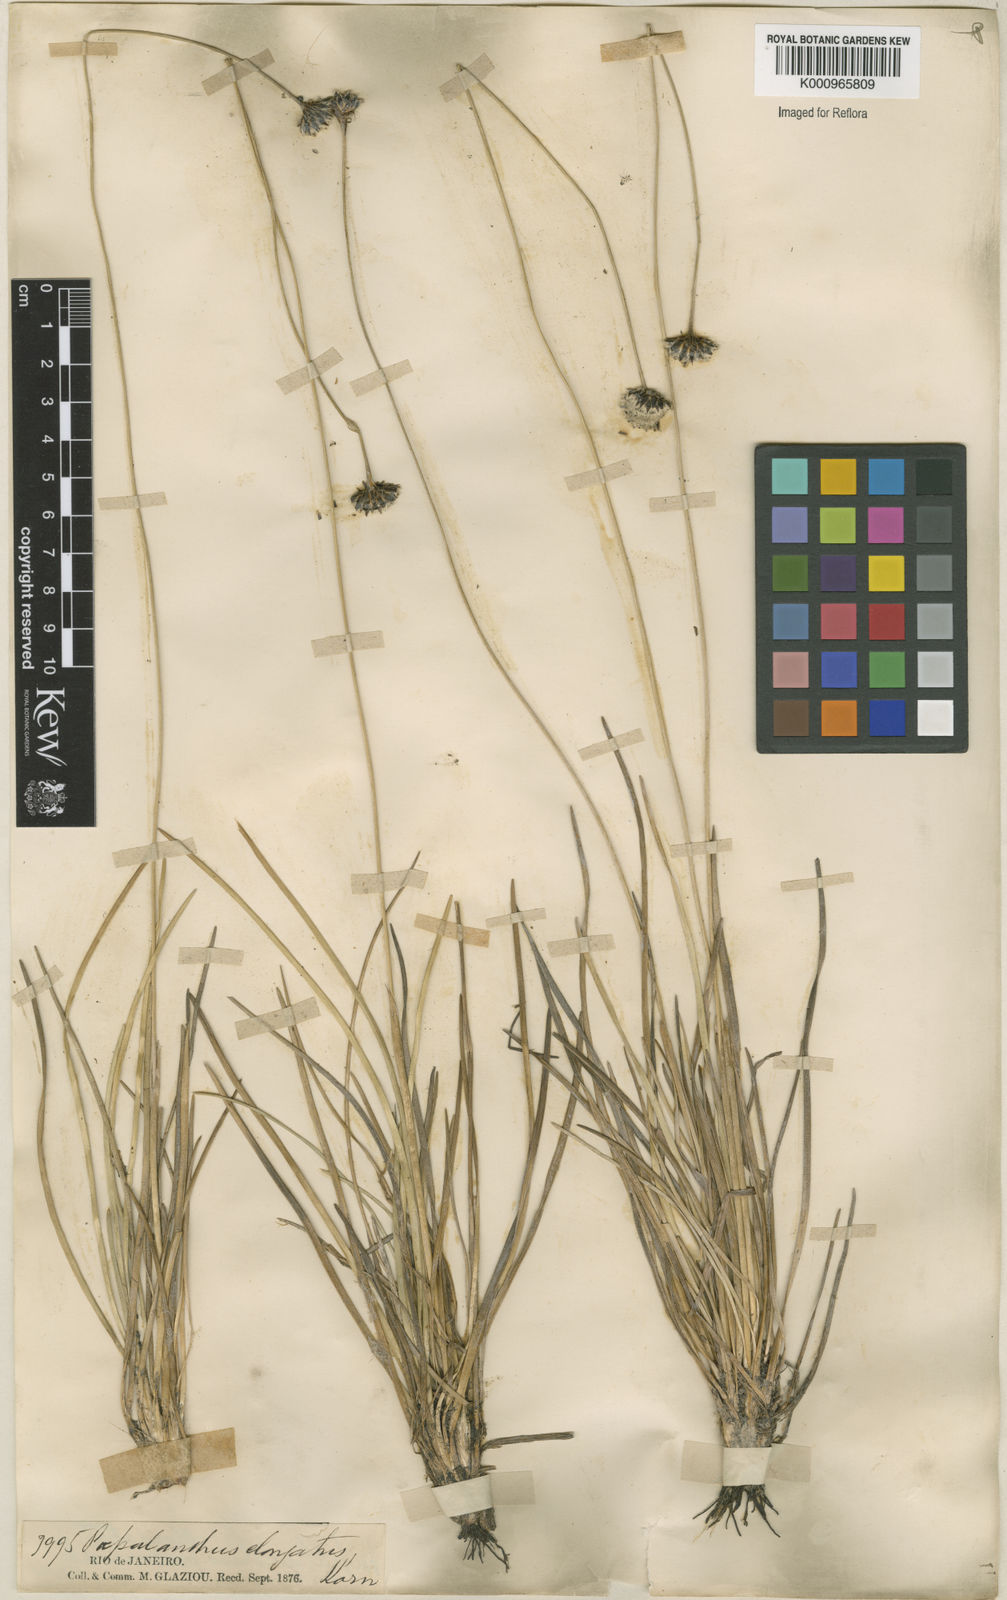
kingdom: Plantae
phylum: Tracheophyta
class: Liliopsida
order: Poales
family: Eriocaulaceae
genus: Paepalanthus
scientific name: Paepalanthus
